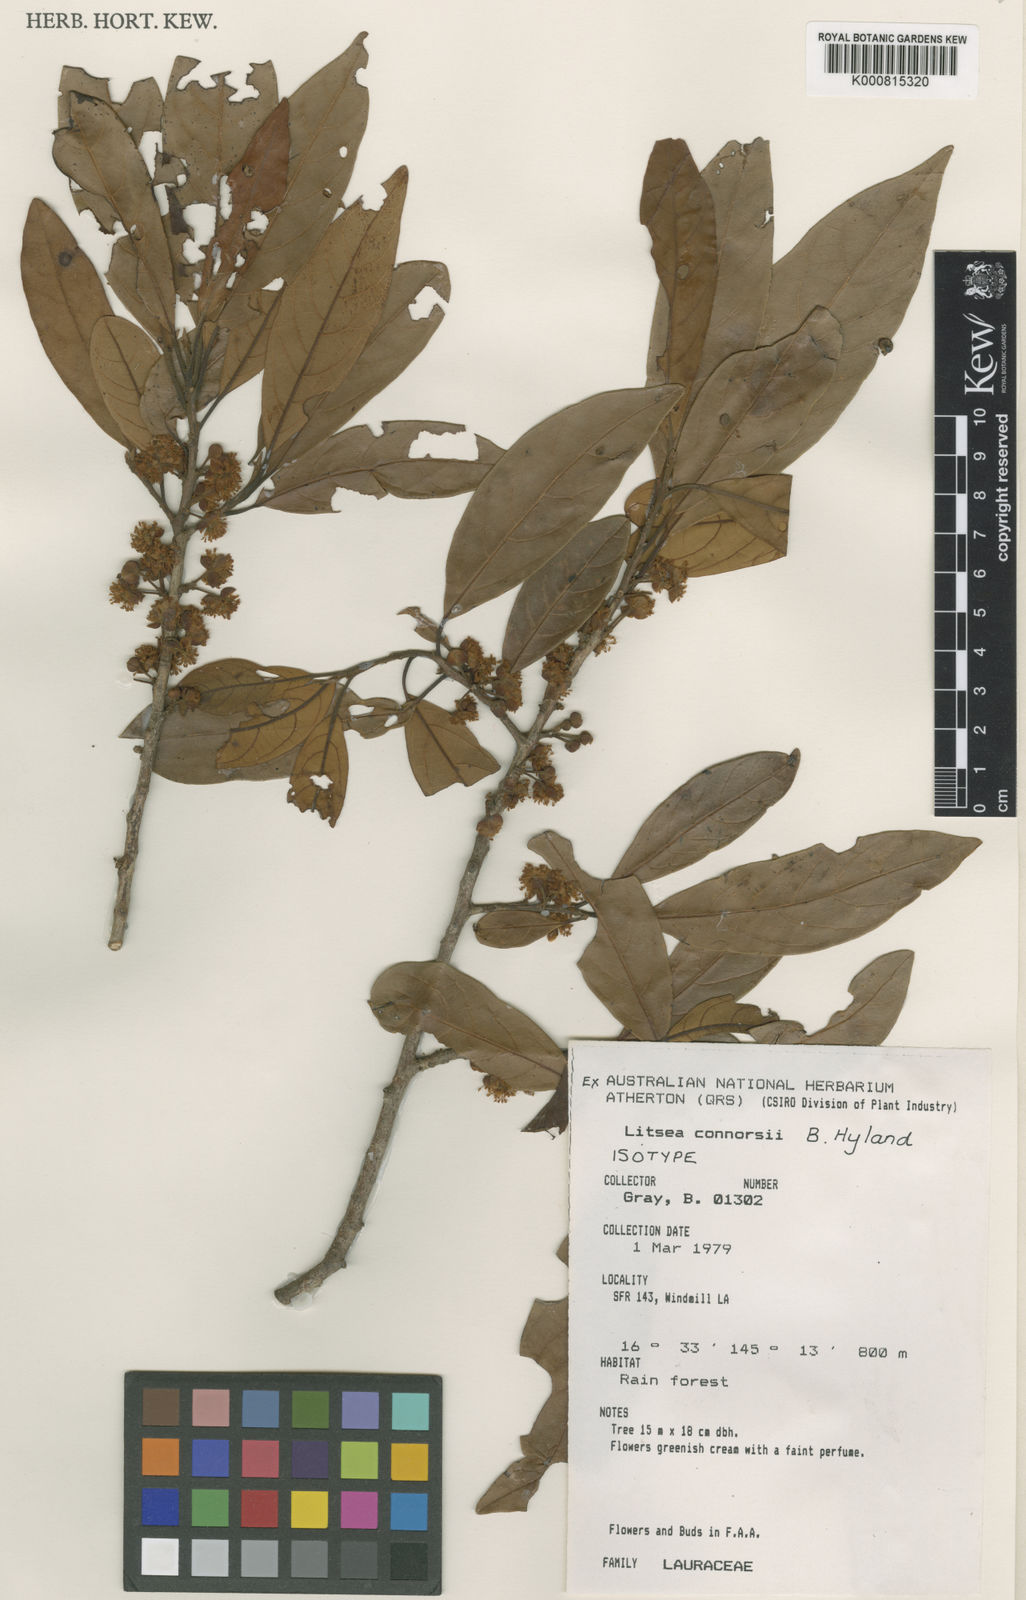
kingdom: Plantae
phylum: Tracheophyta
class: Magnoliopsida
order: Laurales
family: Lauraceae
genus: Litsea
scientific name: Litsea connorsii
